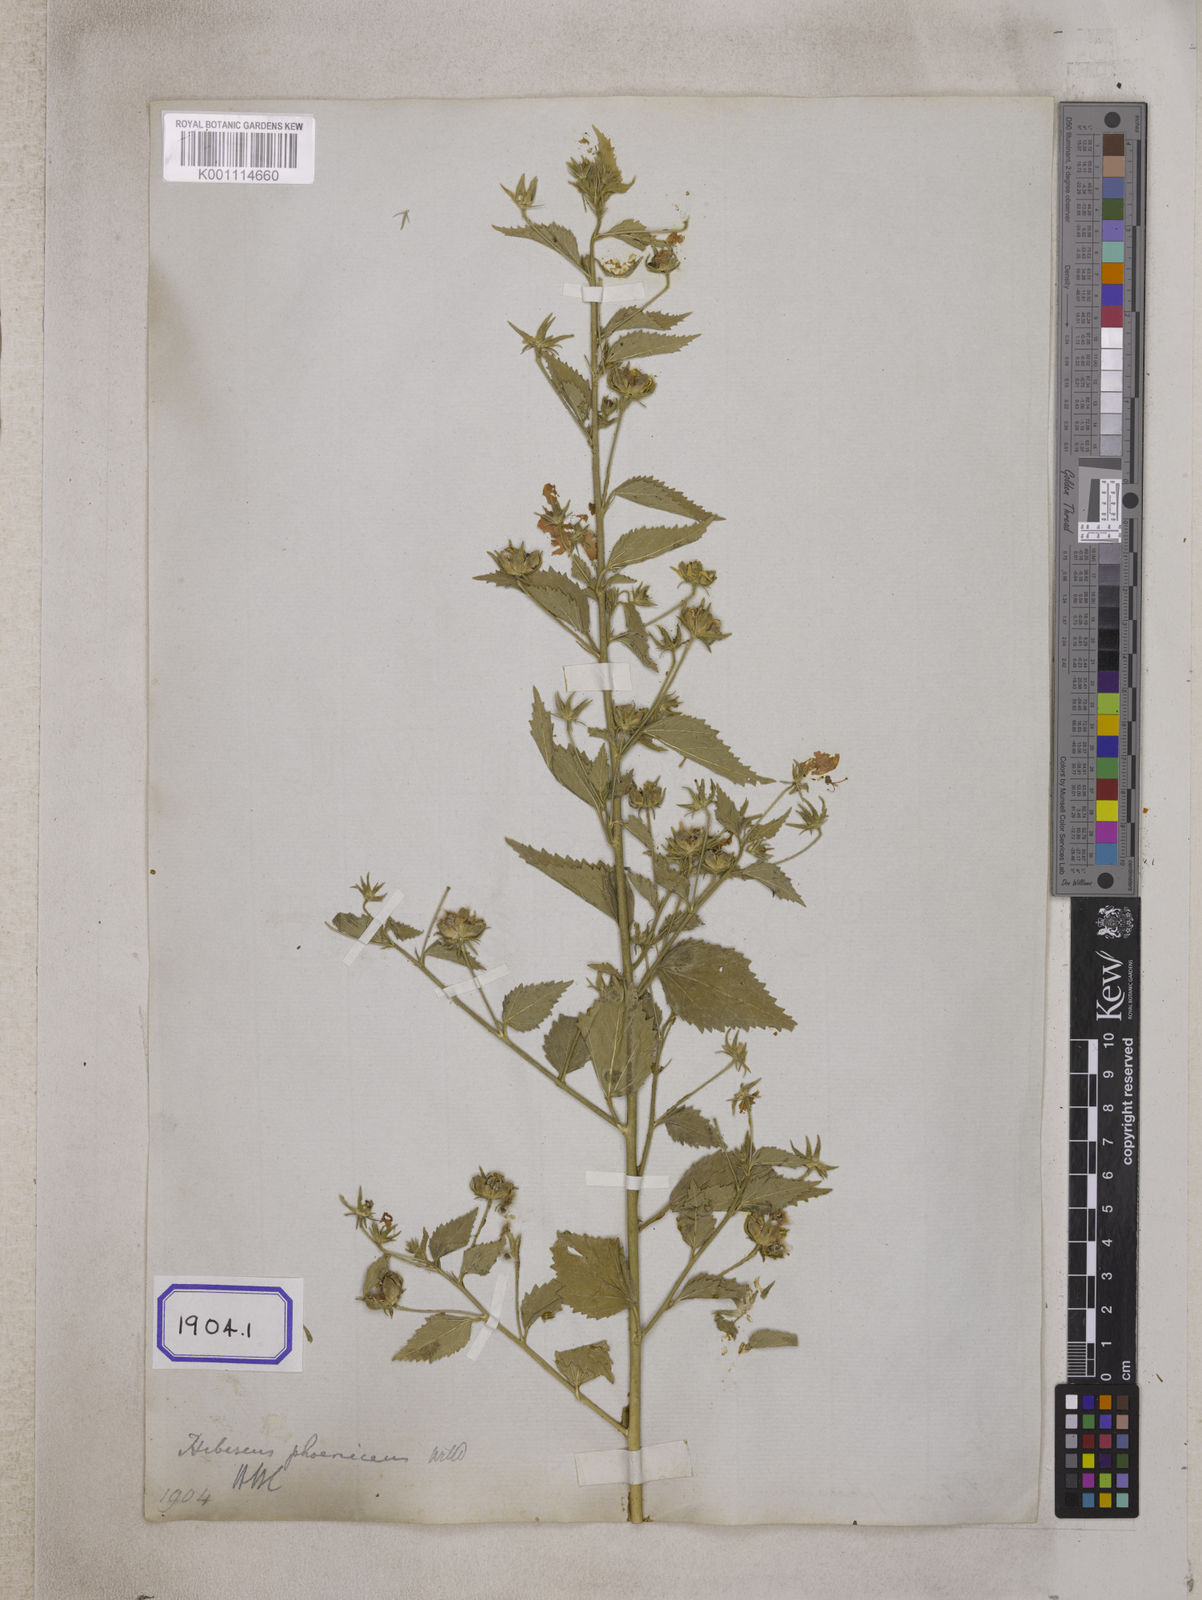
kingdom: Plantae
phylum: Tracheophyta
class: Magnoliopsida
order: Malvales
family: Malvaceae
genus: Hibiscus
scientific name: Hibiscus phoeniceus
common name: Brazilian rosemallow
